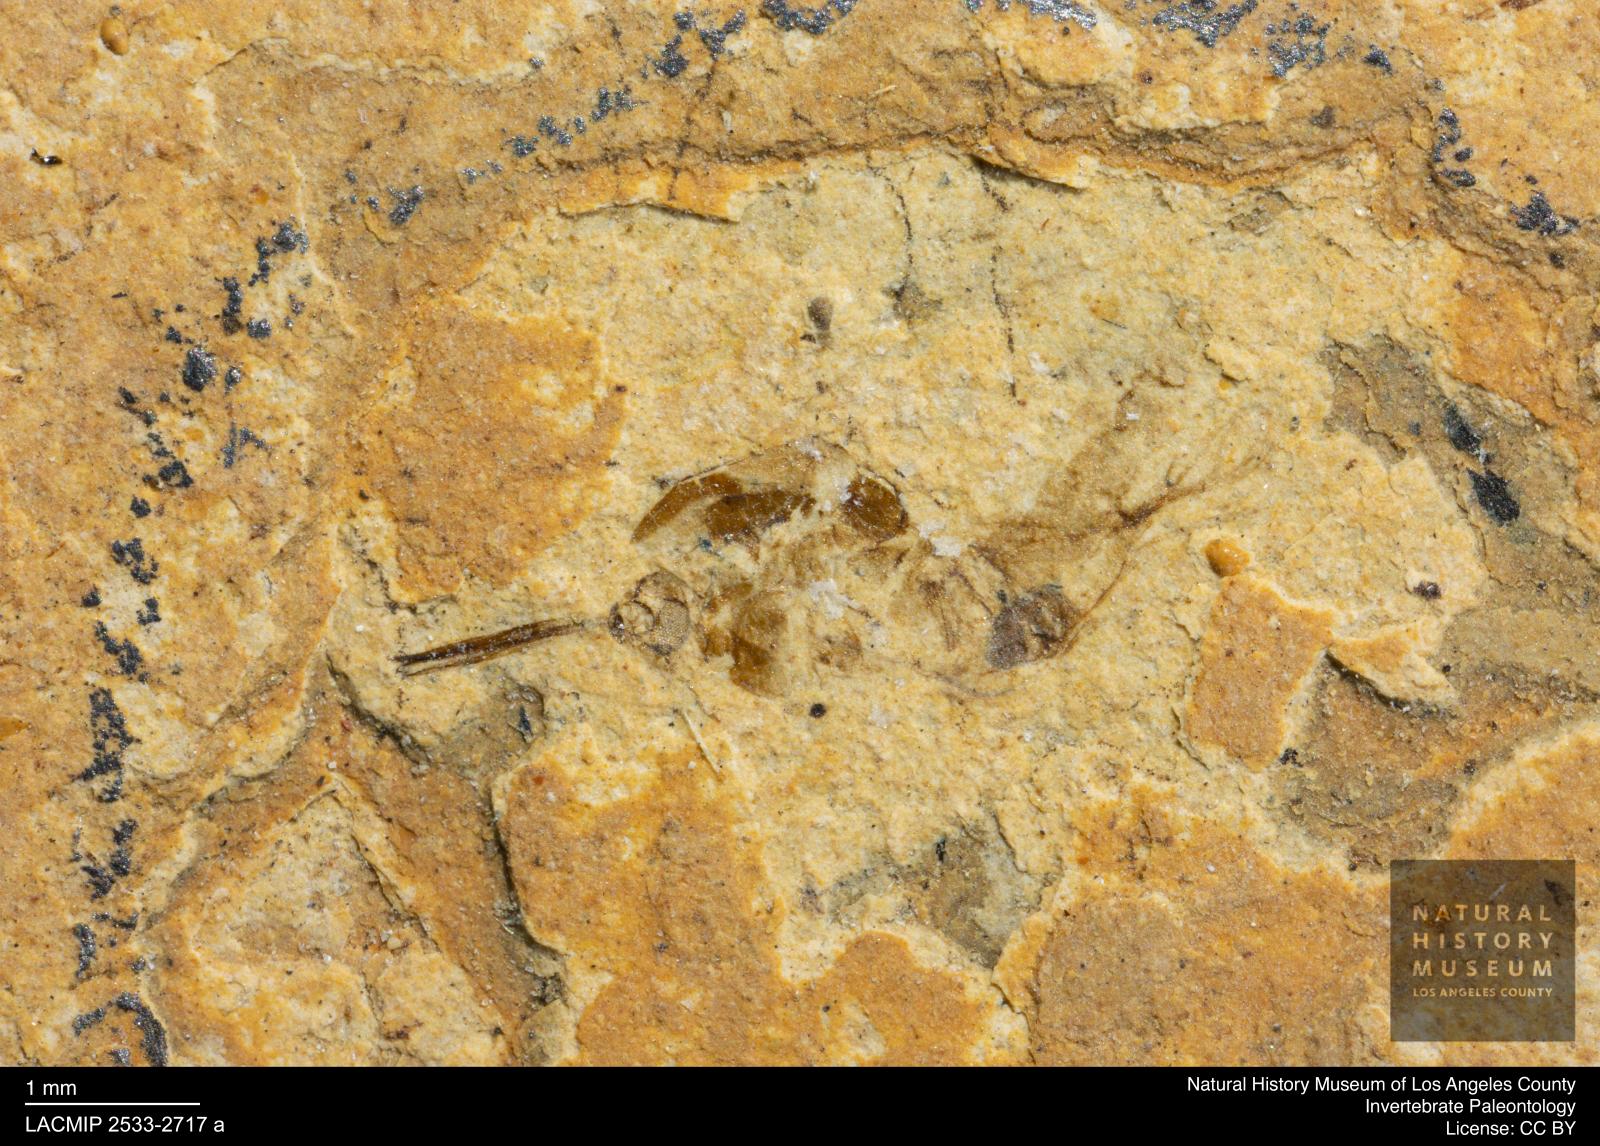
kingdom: Animalia
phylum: Arthropoda
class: Insecta
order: Hymenoptera
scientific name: Hymenoptera
